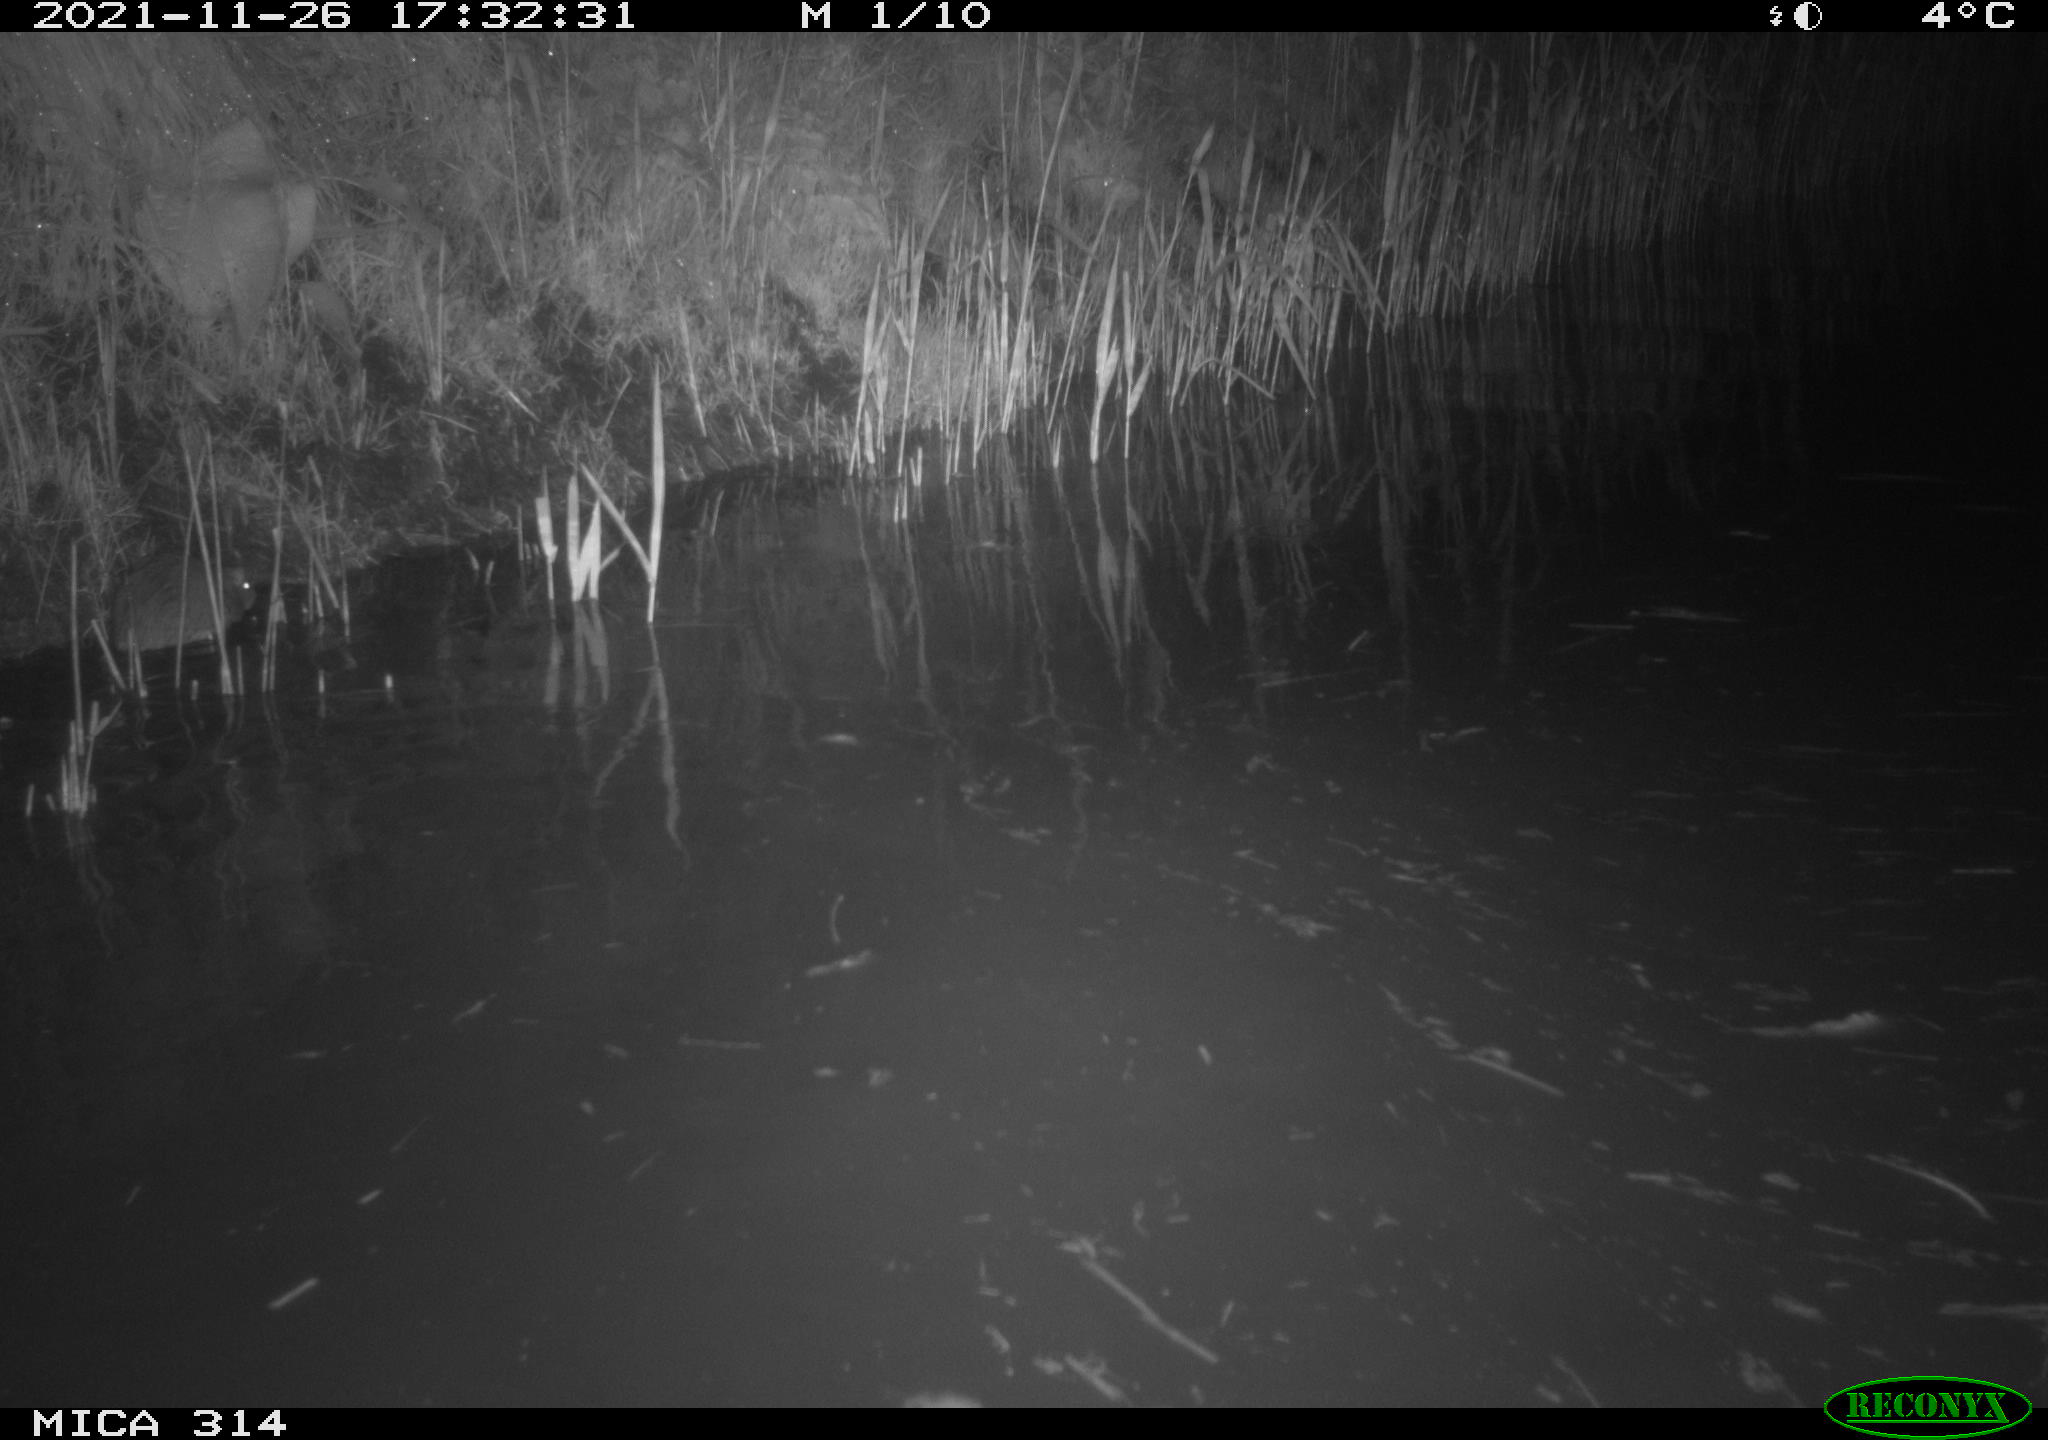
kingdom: Animalia
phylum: Chordata
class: Mammalia
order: Rodentia
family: Muridae
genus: Rattus
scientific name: Rattus norvegicus
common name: Brown rat
